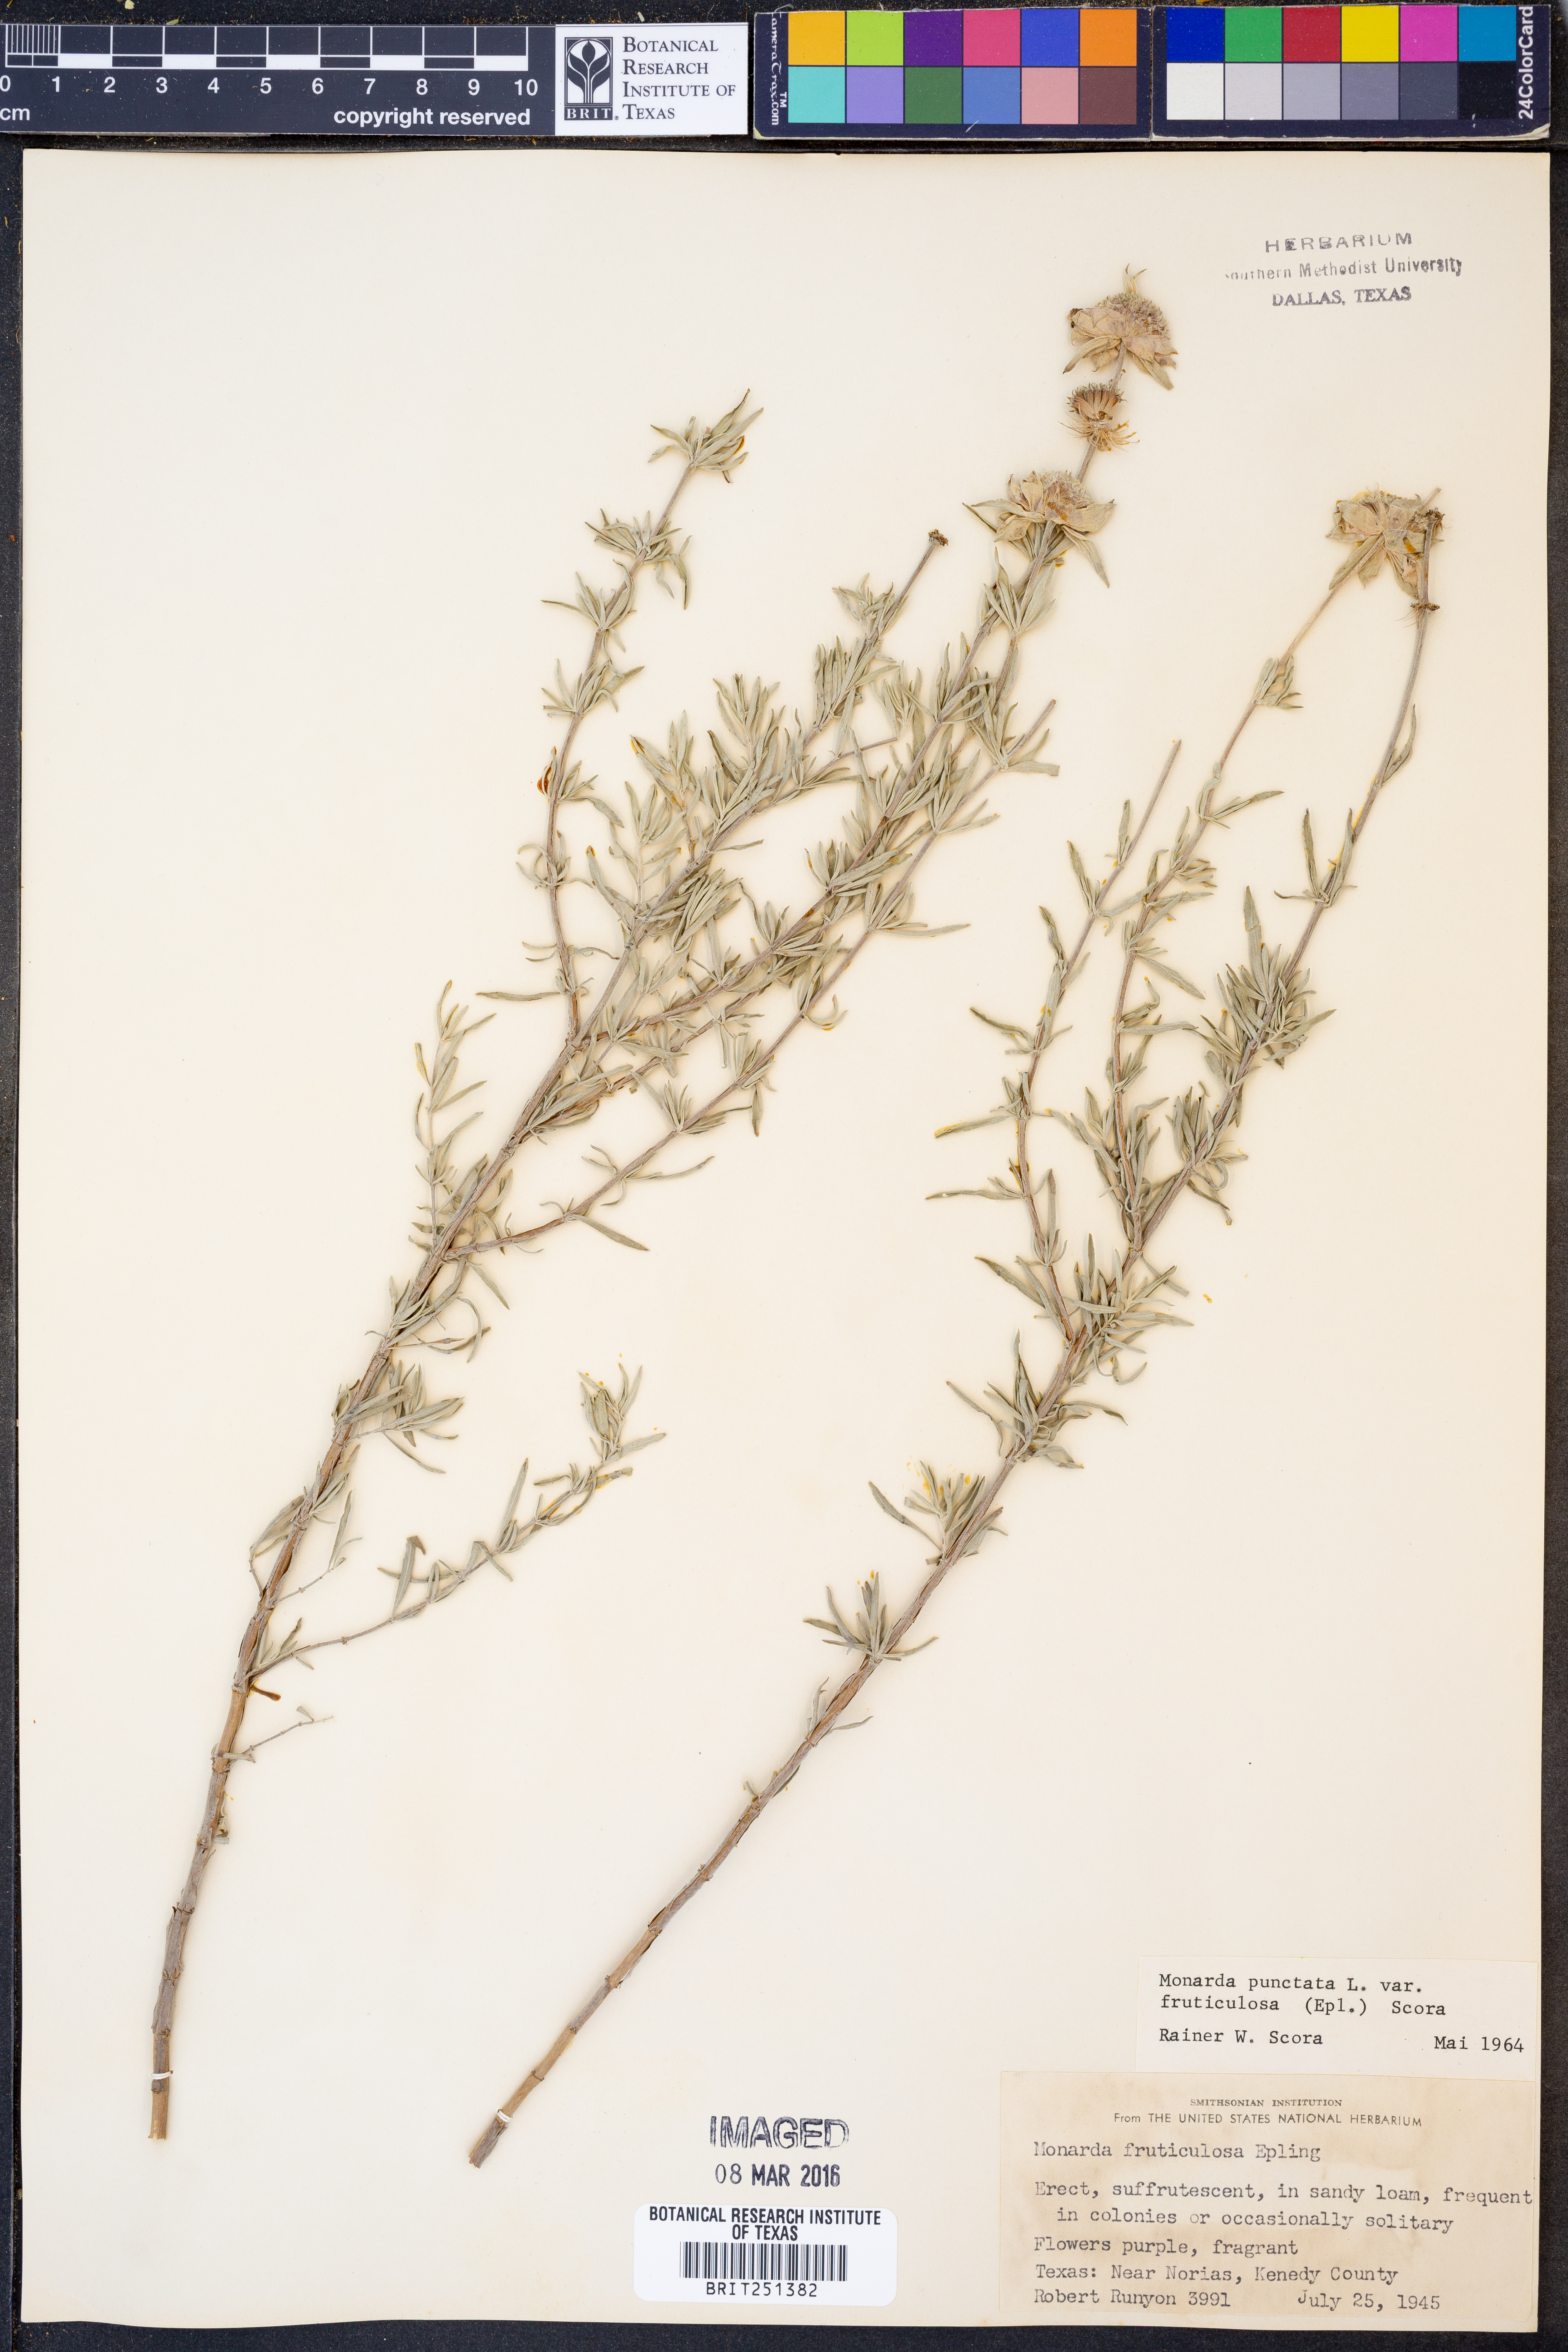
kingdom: Plantae
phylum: Tracheophyta
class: Magnoliopsida
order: Lamiales
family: Lamiaceae
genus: Monarda
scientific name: Monarda fruticulosa
